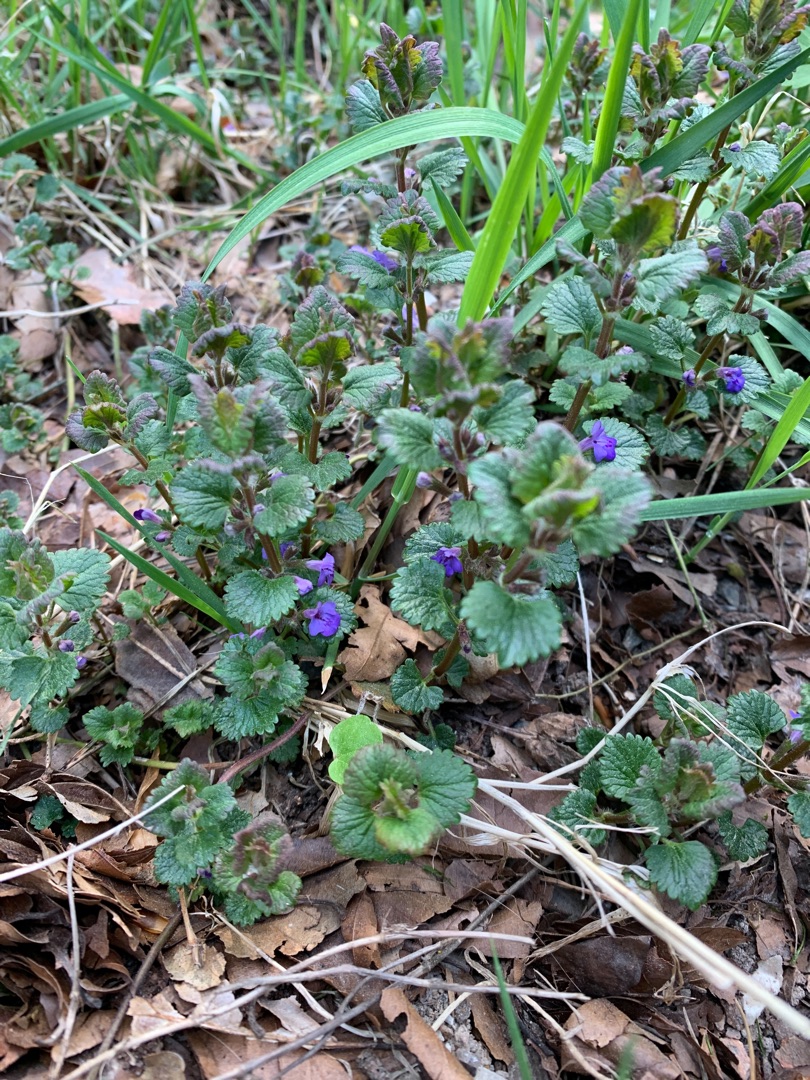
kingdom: Plantae
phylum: Tracheophyta
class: Magnoliopsida
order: Lamiales
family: Lamiaceae
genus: Glechoma
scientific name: Glechoma hederacea
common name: Korsknap
